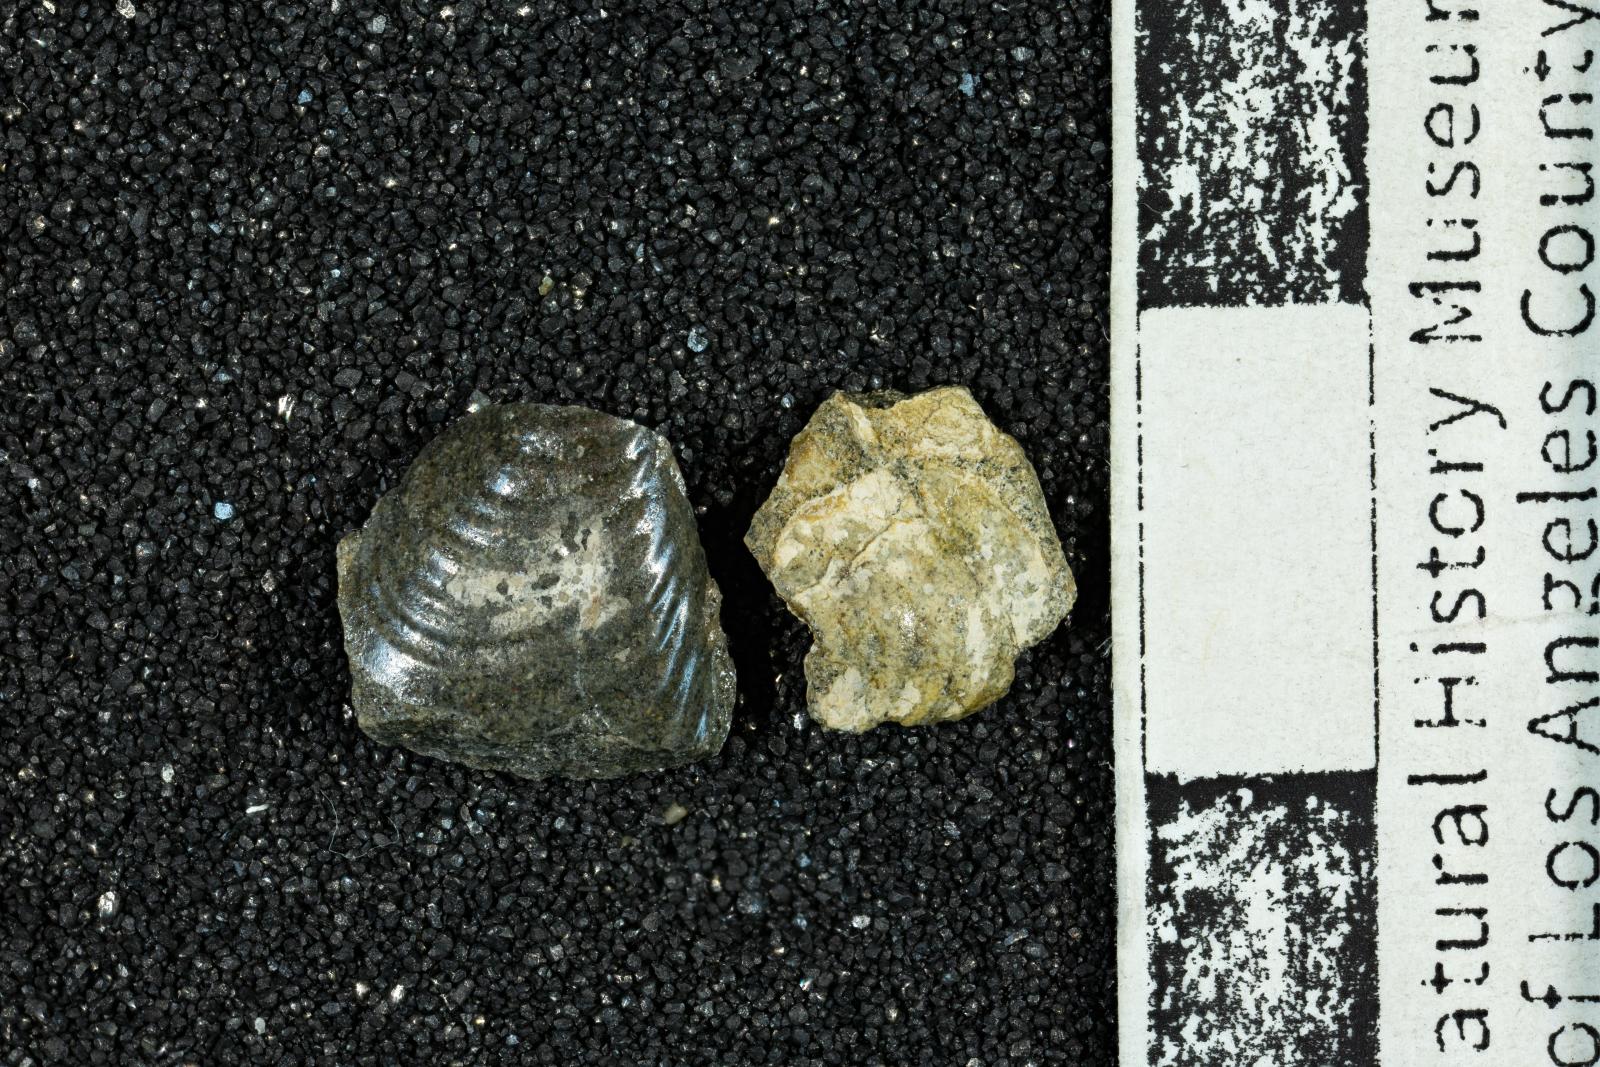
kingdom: Animalia
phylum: Mollusca
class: Bivalvia
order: Myalinida
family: Inoceramidae
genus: Inoceramus
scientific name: Inoceramus
